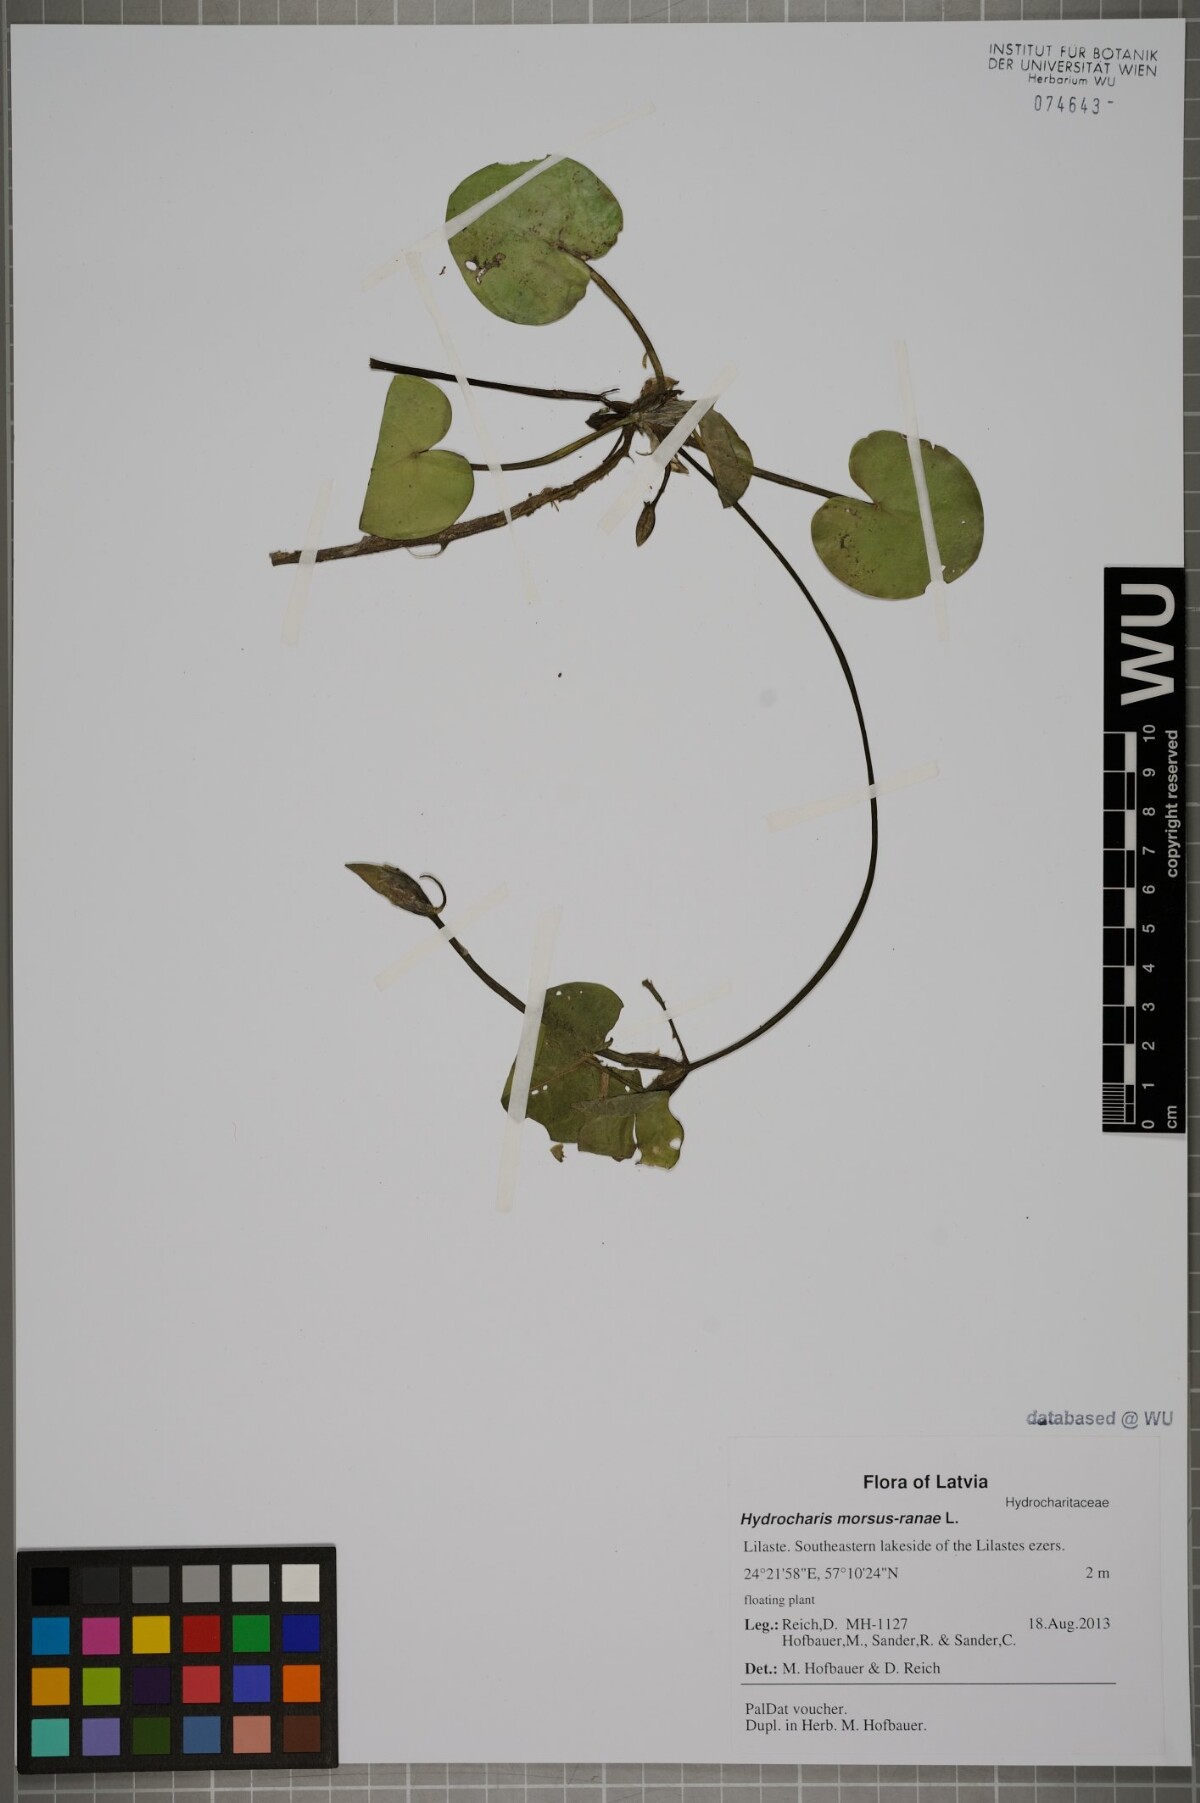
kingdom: Plantae
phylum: Tracheophyta
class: Liliopsida
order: Alismatales
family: Hydrocharitaceae
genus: Hydrocharis
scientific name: Hydrocharis morsus-ranae
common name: Frogbit
